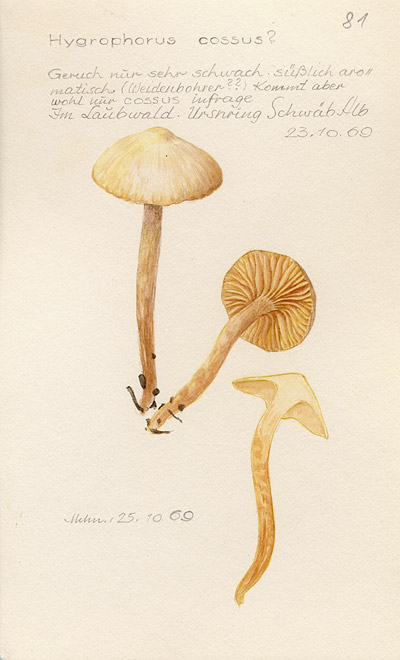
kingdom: Fungi
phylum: Basidiomycota
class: Agaricomycetes
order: Agaricales
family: Hygrophoraceae
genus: Hygrophorus
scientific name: Hygrophorus cossus
